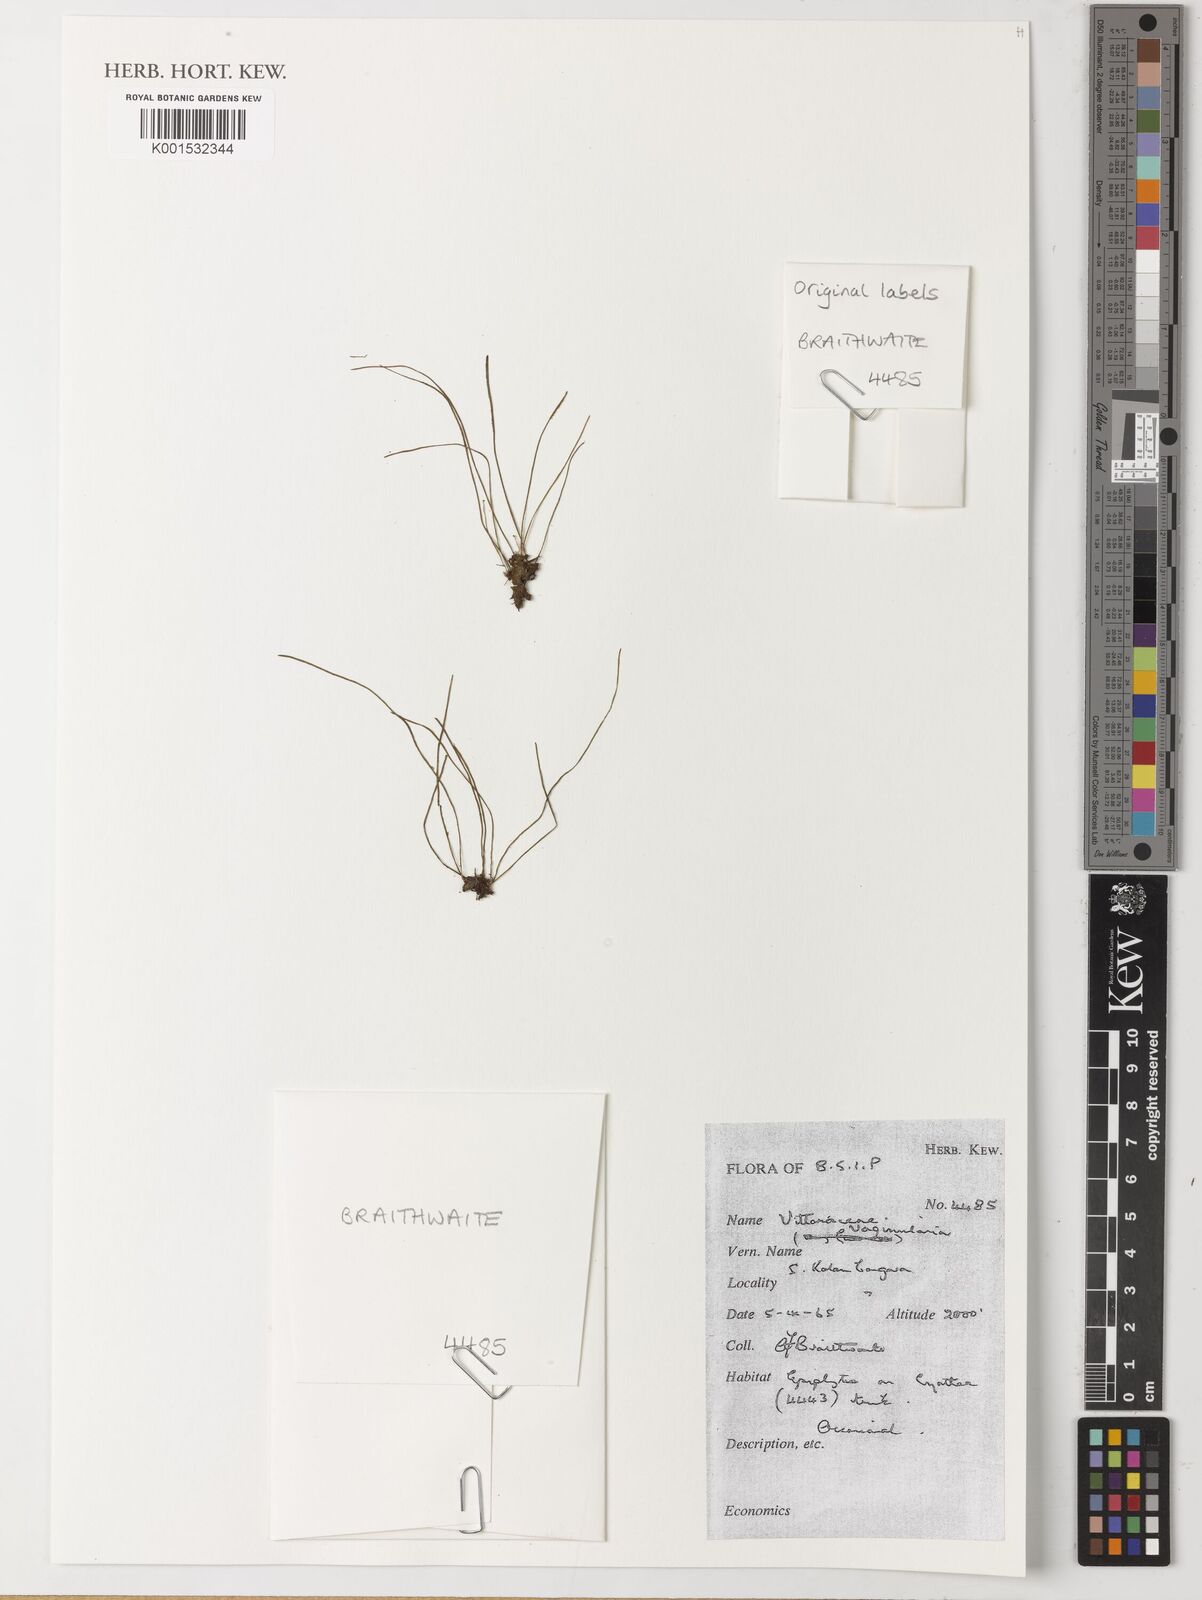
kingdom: Plantae
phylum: Tracheophyta
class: Polypodiopsida
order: Polypodiales
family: Pteridaceae
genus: Vaginularia
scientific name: Vaginularia
